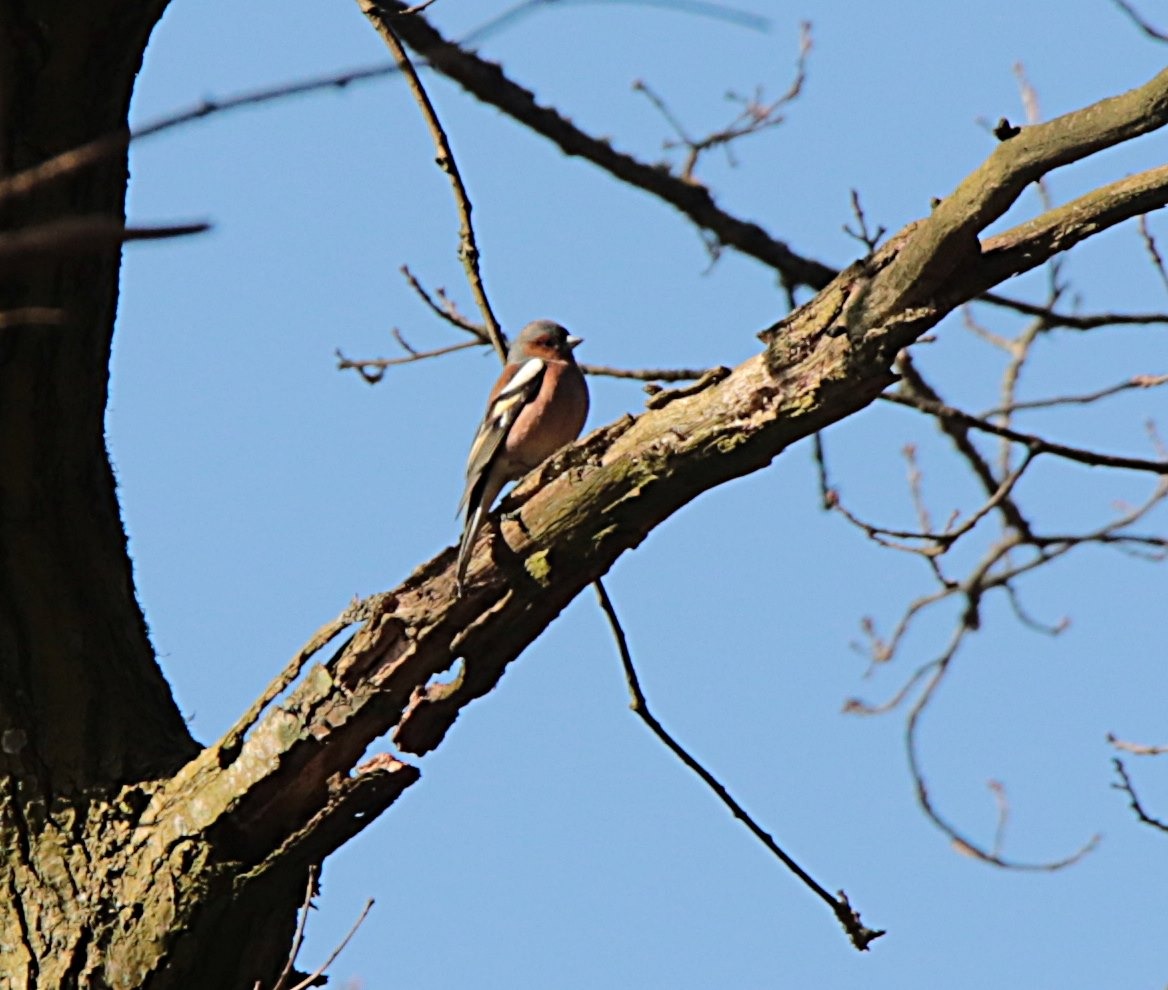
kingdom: Animalia
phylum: Chordata
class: Aves
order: Passeriformes
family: Fringillidae
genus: Fringilla
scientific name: Fringilla coelebs
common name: Bogfinke
